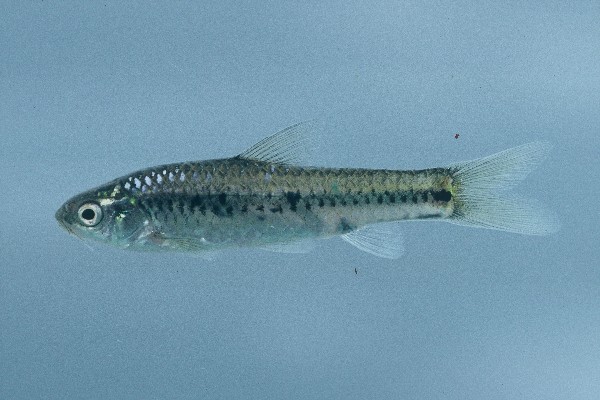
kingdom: Animalia
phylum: Chordata
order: Cypriniformes
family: Cyprinidae
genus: Enteromius
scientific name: Enteromius atkinsoni
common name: Dash-dot barb
